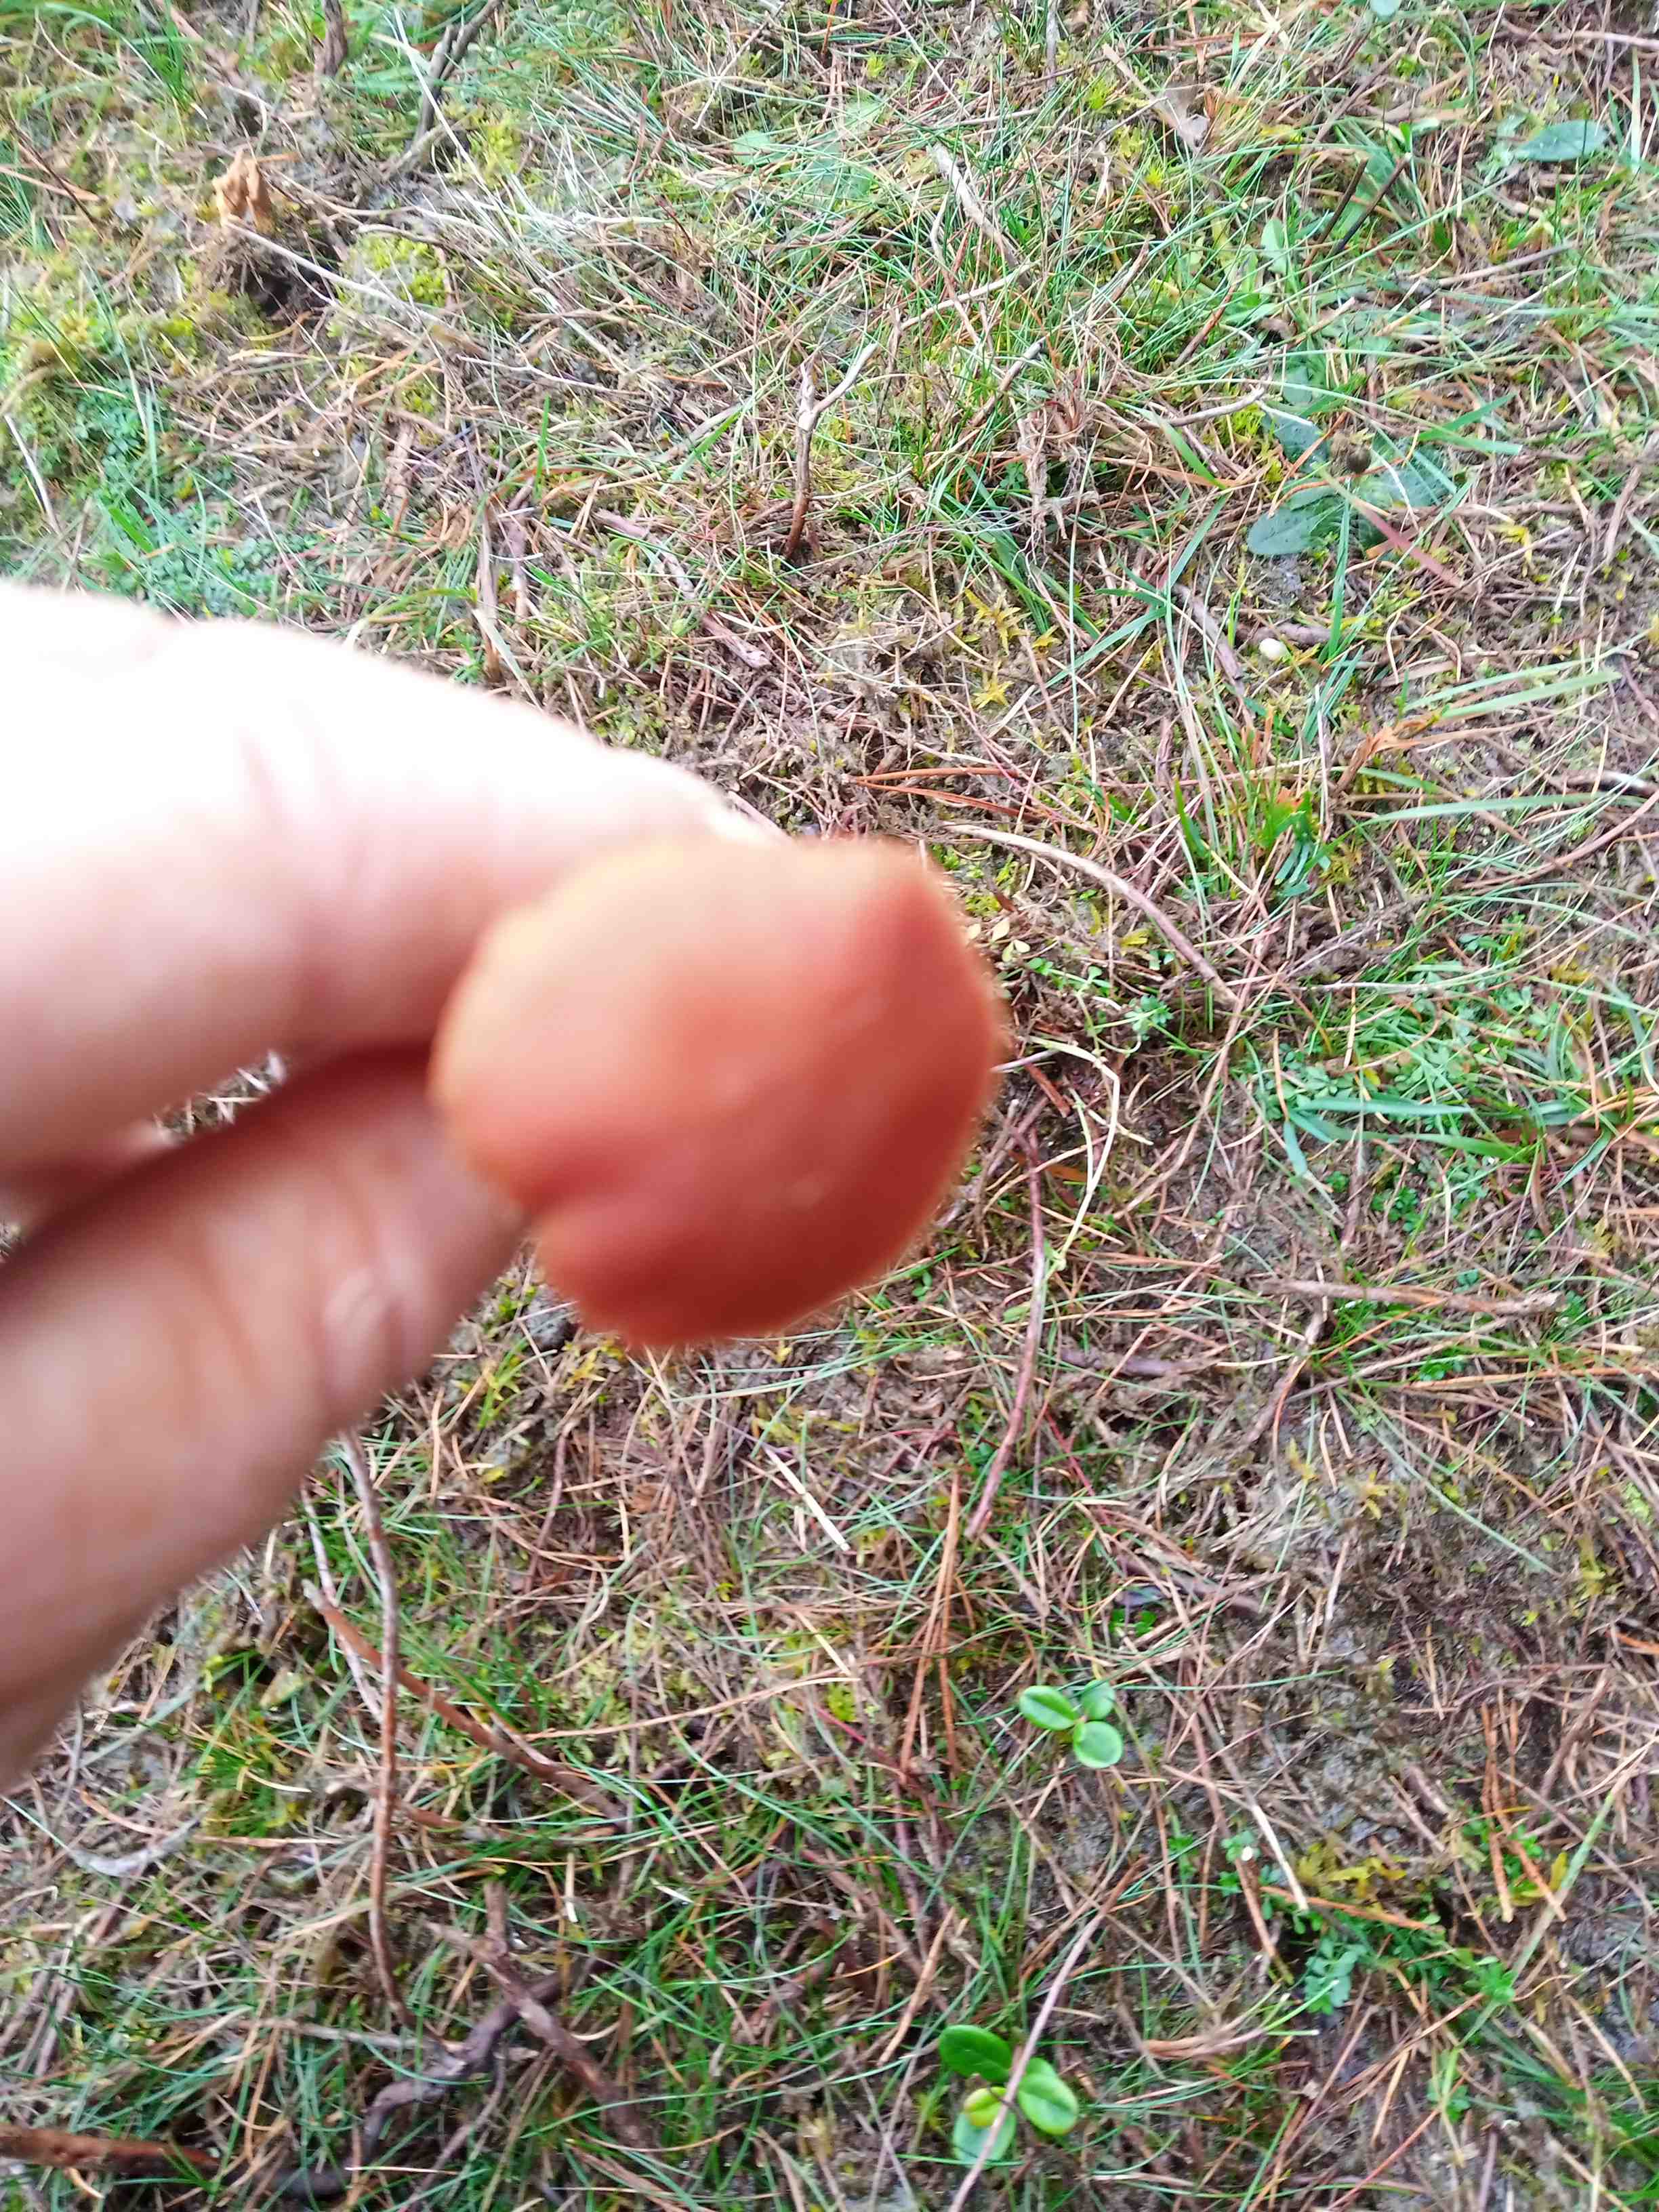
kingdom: Fungi
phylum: Basidiomycota
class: Agaricomycetes
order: Agaricales
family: Hydnangiaceae
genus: Laccaria
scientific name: Laccaria laccata
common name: rød ametysthat
